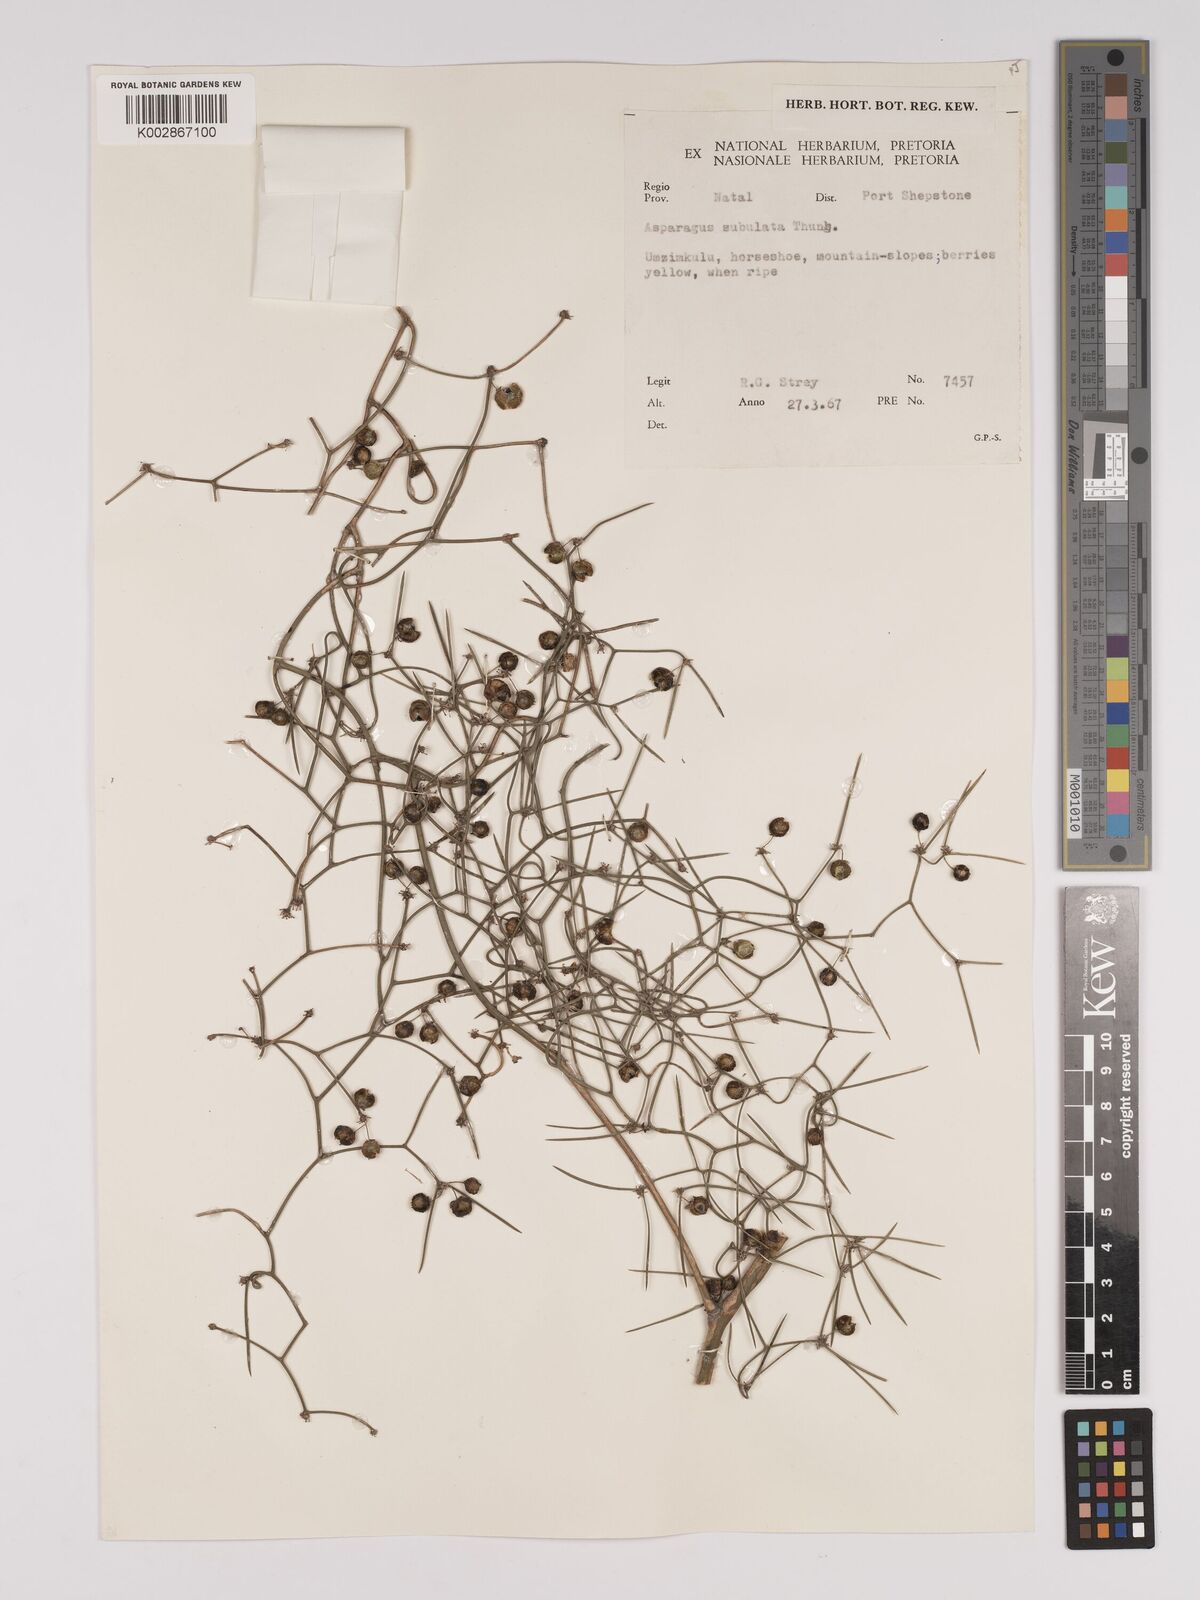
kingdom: Plantae
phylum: Tracheophyta
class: Liliopsida
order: Asparagales
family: Asparagaceae
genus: Asparagus
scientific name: Asparagus subulatus
